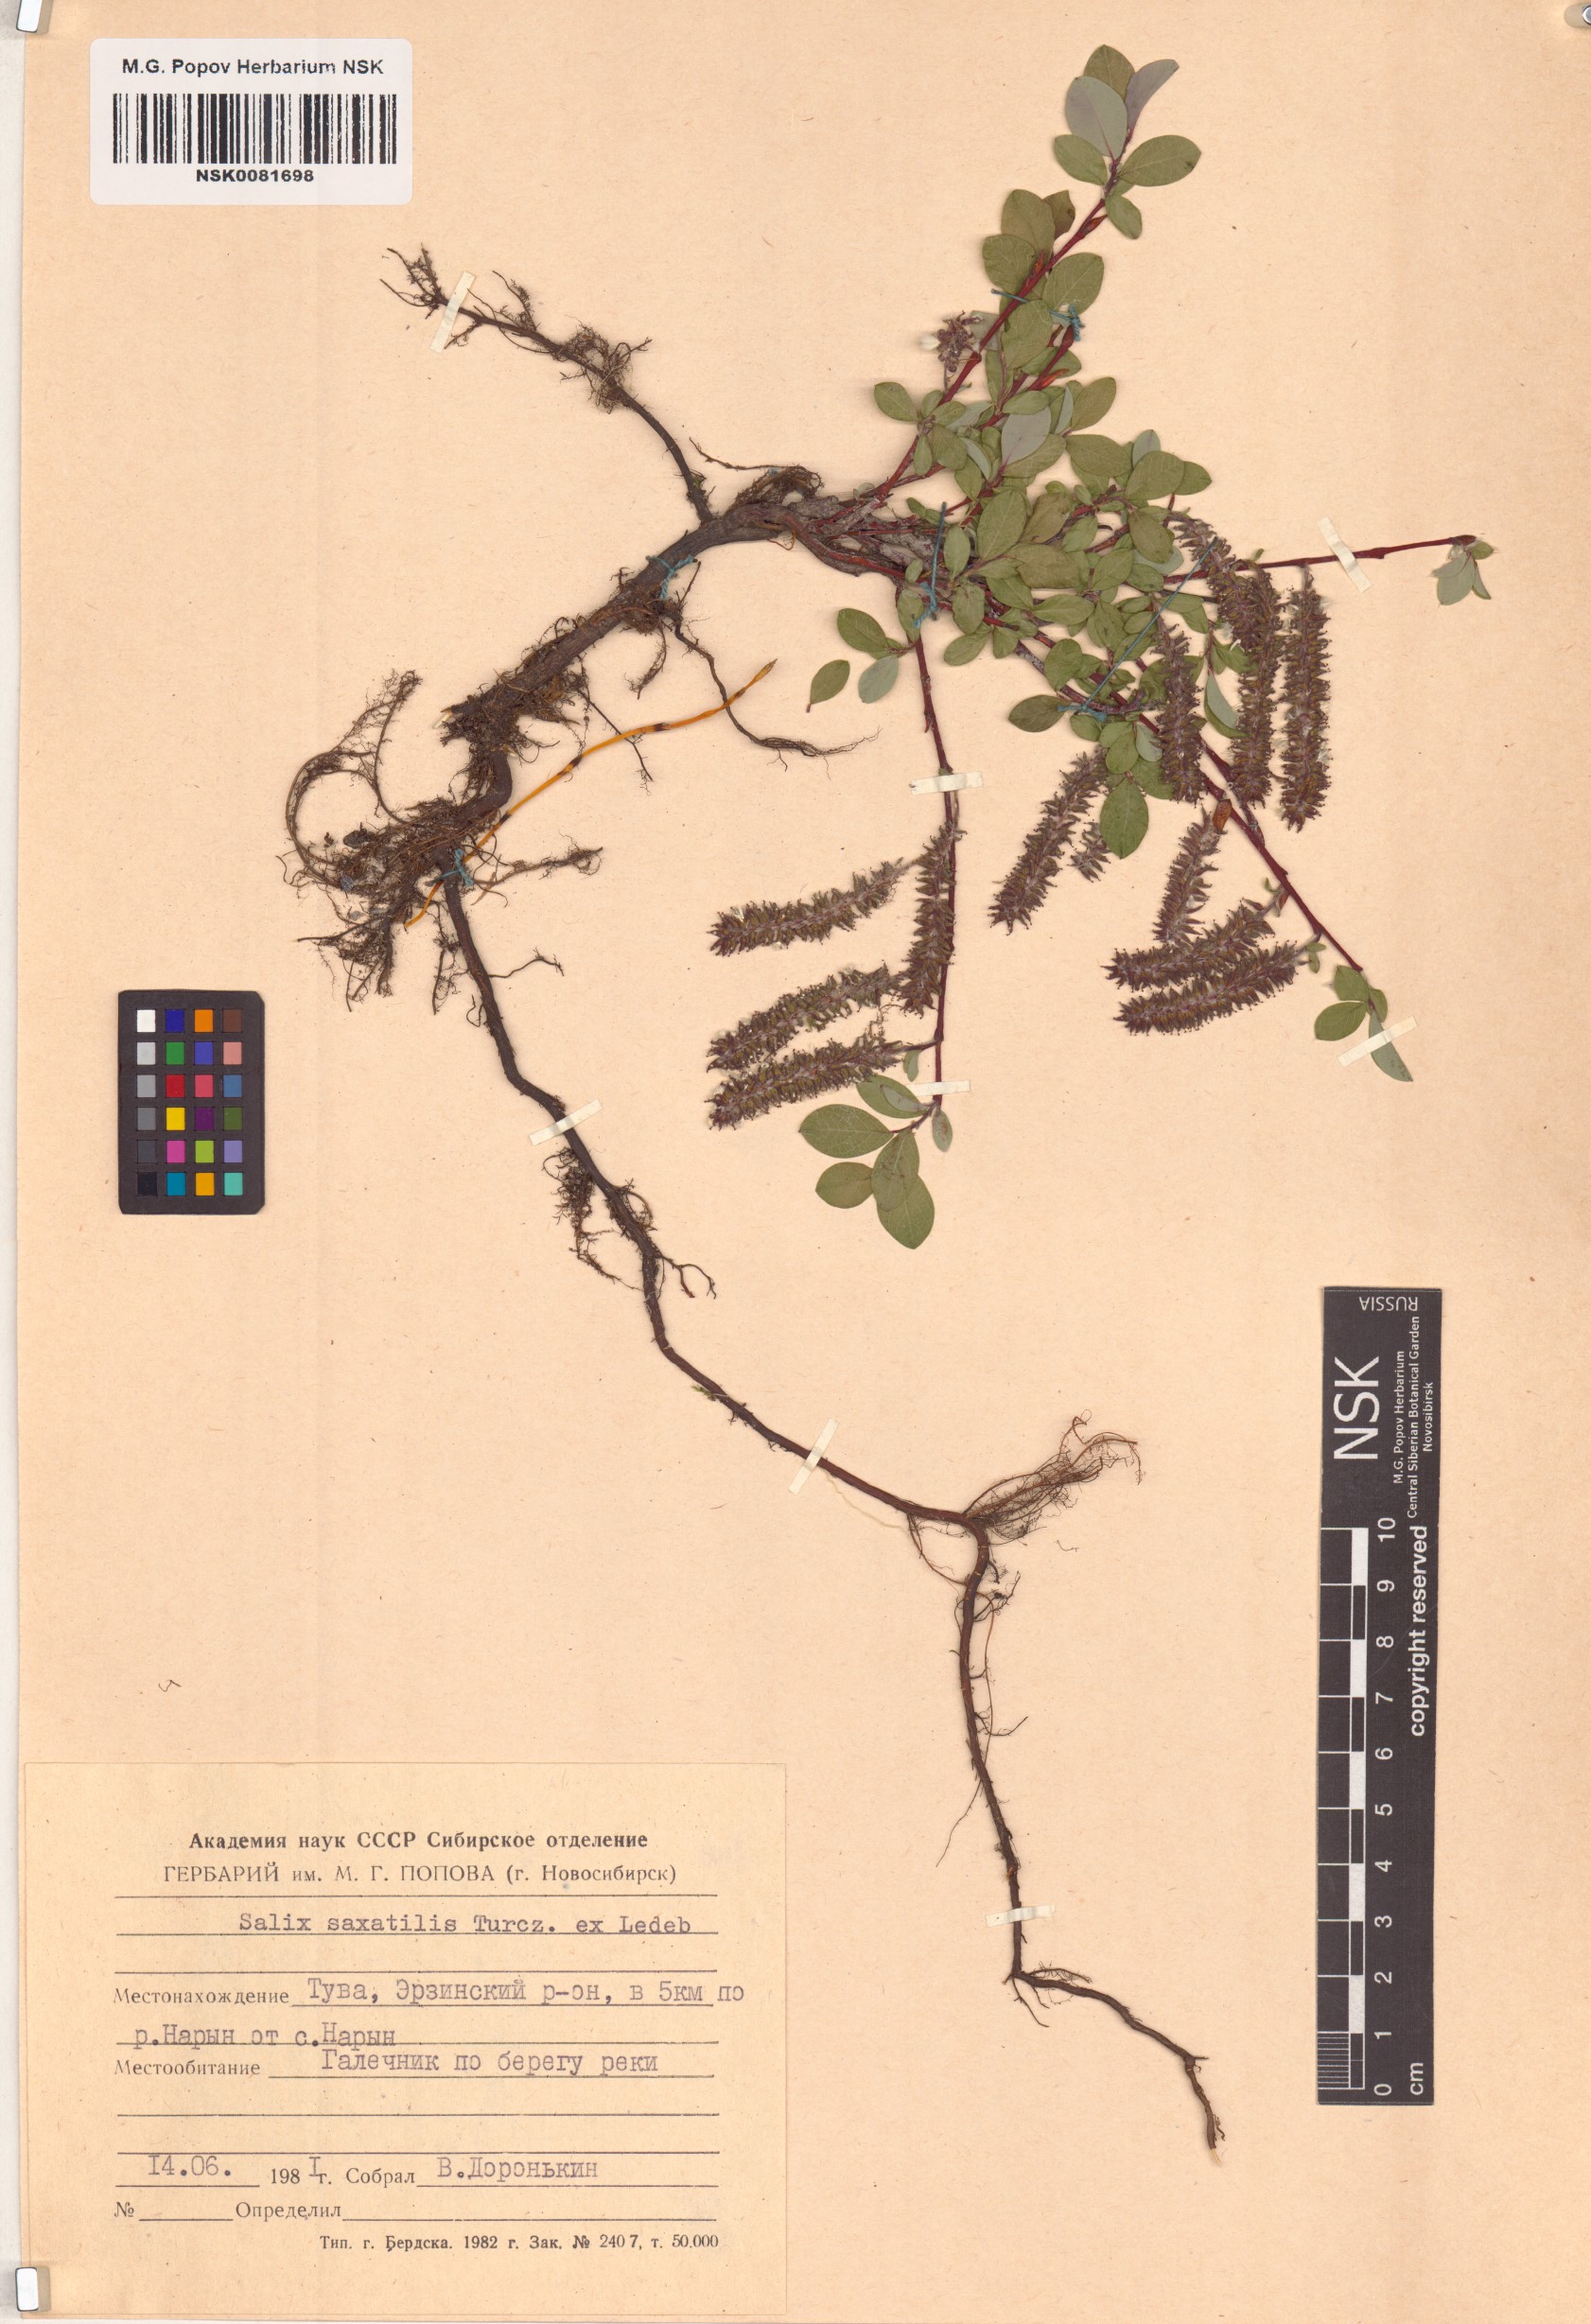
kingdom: Plantae
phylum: Tracheophyta
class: Magnoliopsida
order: Malpighiales
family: Salicaceae
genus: Salix
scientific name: Salix saxatilis
